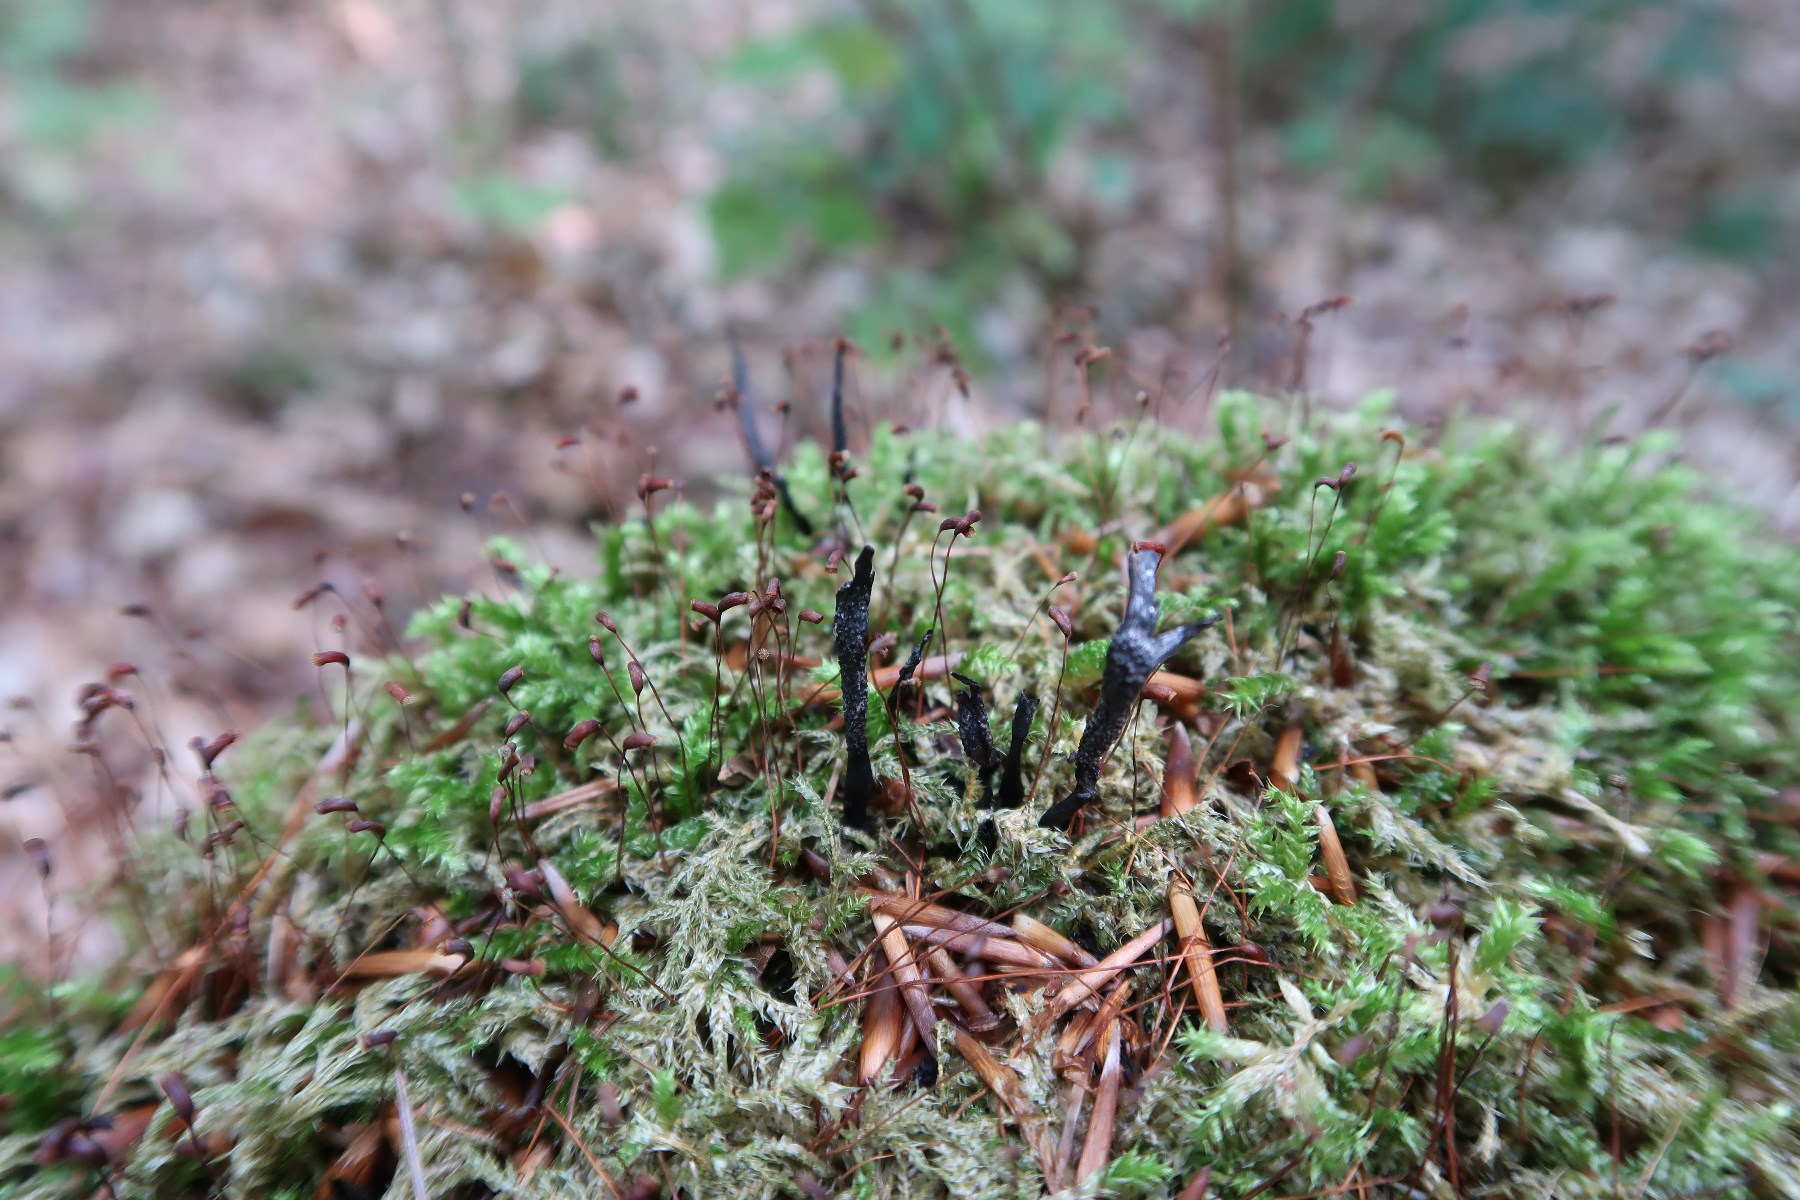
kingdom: Fungi
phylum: Ascomycota
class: Sordariomycetes
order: Xylariales
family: Xylariaceae
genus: Xylaria
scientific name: Xylaria hypoxylon
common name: grenet stødsvamp
